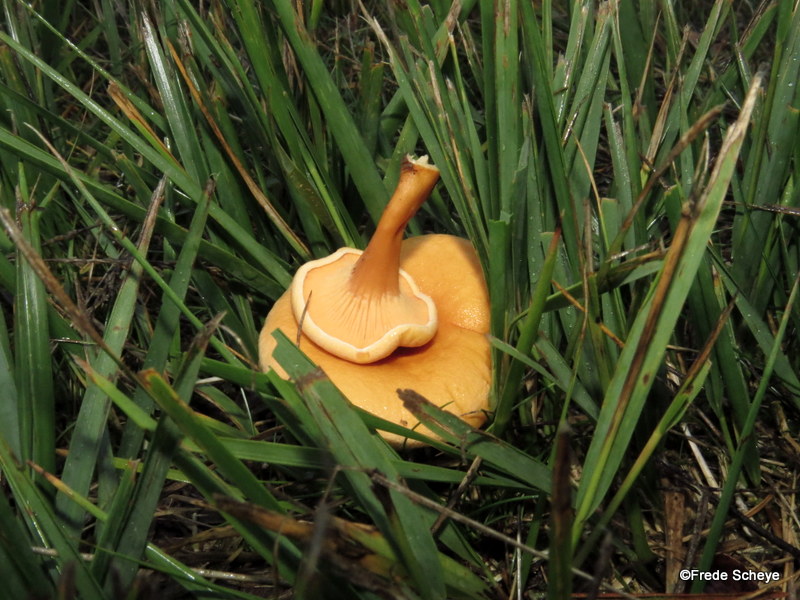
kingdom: Fungi
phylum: Basidiomycota
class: Agaricomycetes
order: Boletales
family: Hygrophoropsidaceae
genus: Hygrophoropsis
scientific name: Hygrophoropsis aurantiaca
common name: almindelig orangekantarel
